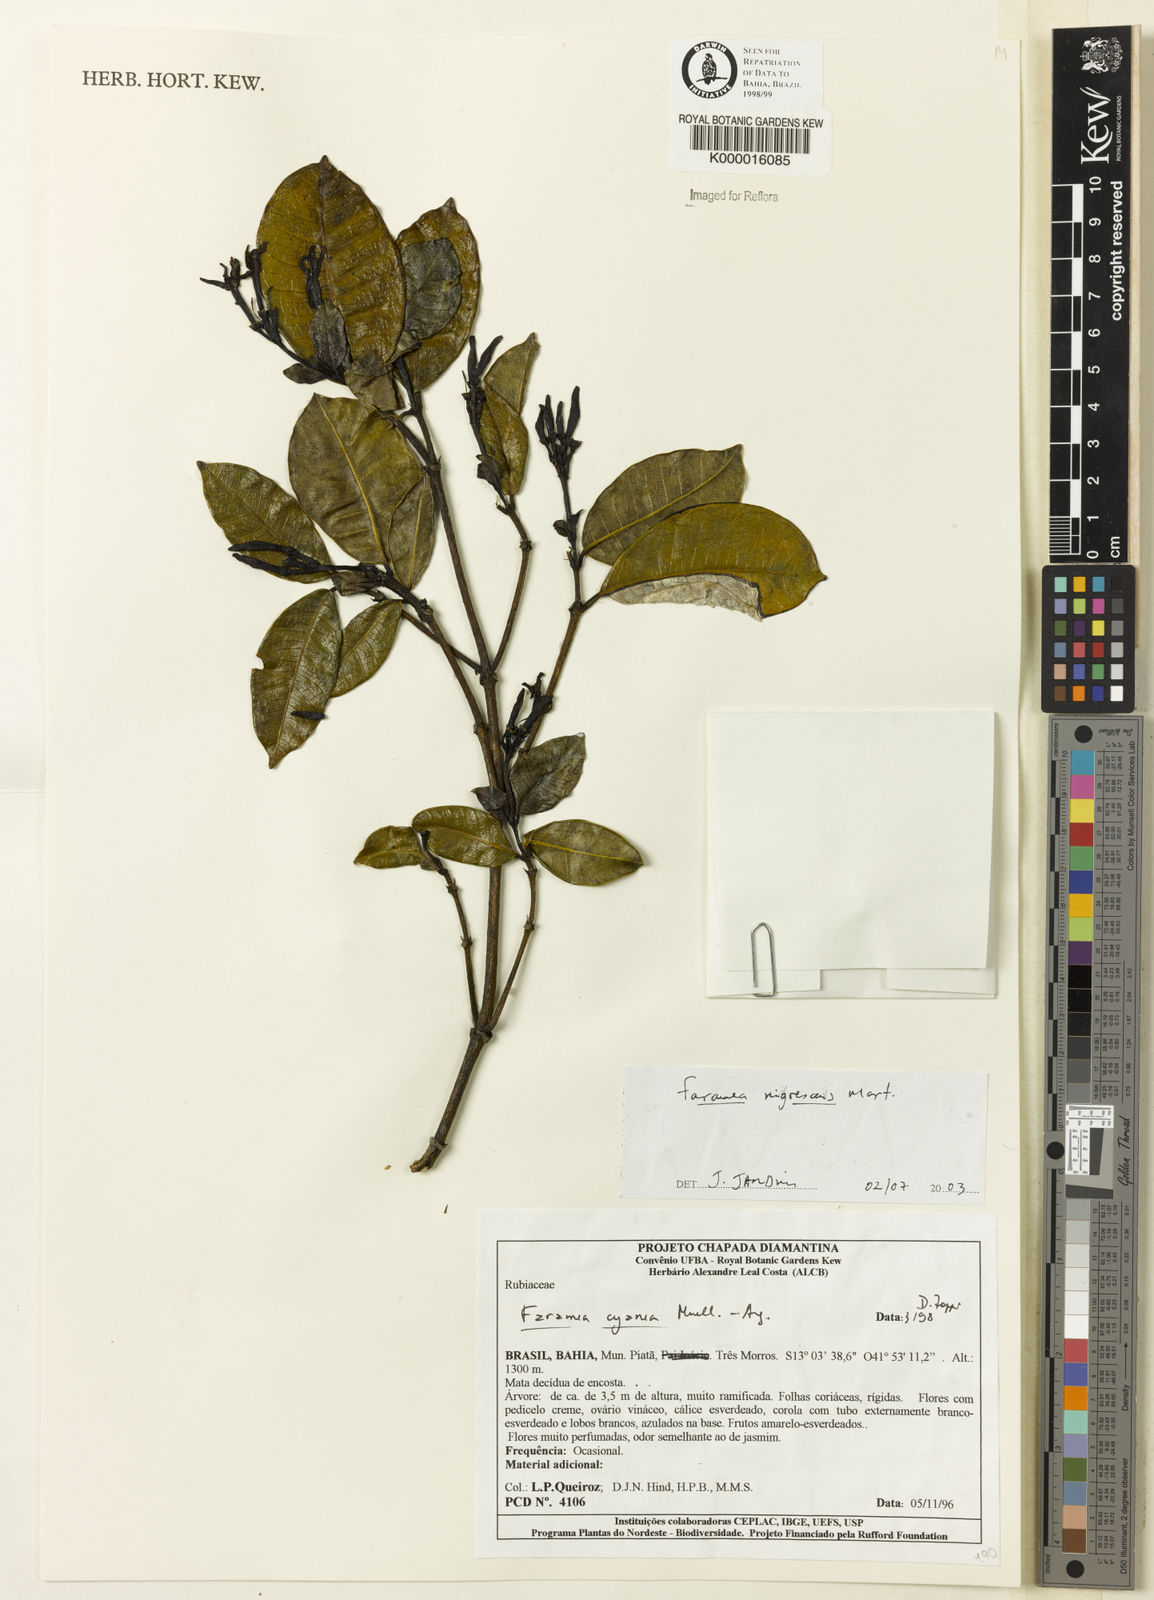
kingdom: Plantae
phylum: Tracheophyta
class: Magnoliopsida
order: Gentianales
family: Rubiaceae
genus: Faramea
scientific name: Faramea nigrescens
